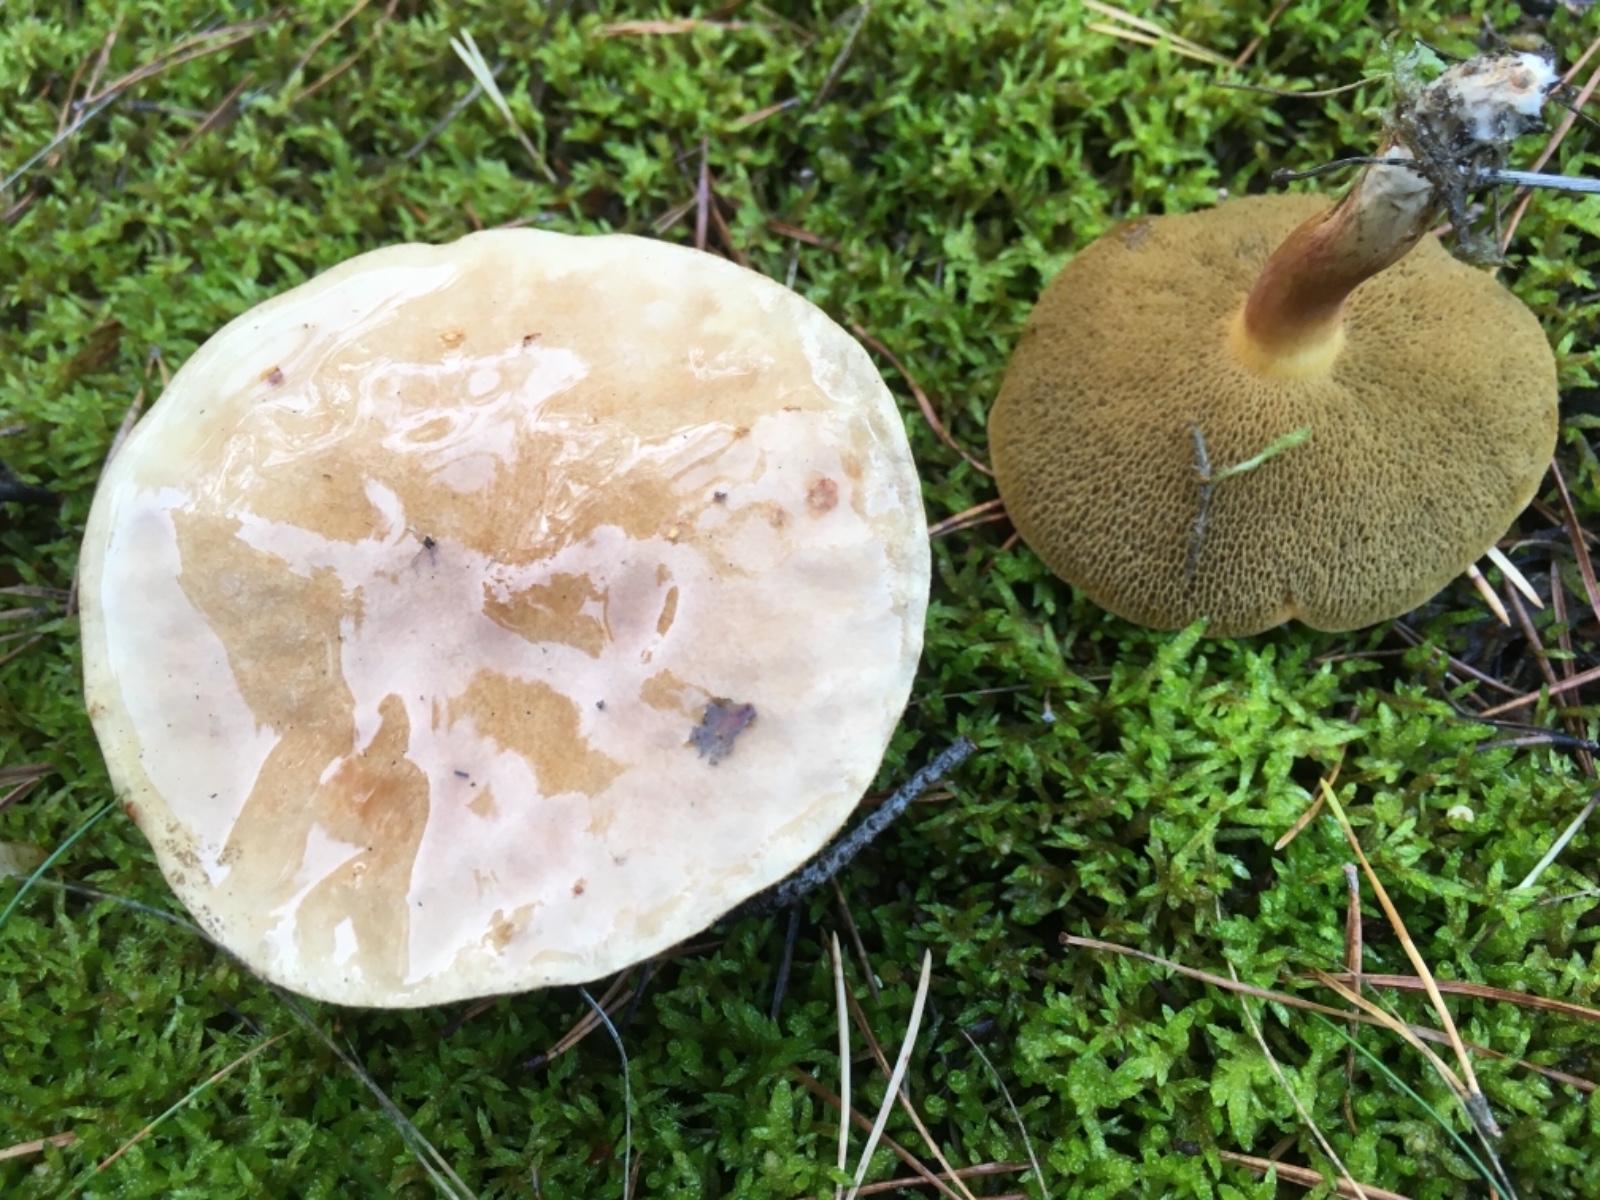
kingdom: Fungi
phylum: Basidiomycota
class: Agaricomycetes
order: Boletales
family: Suillaceae
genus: Suillus
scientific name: Suillus bovinus
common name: grovporet slimrørhat
